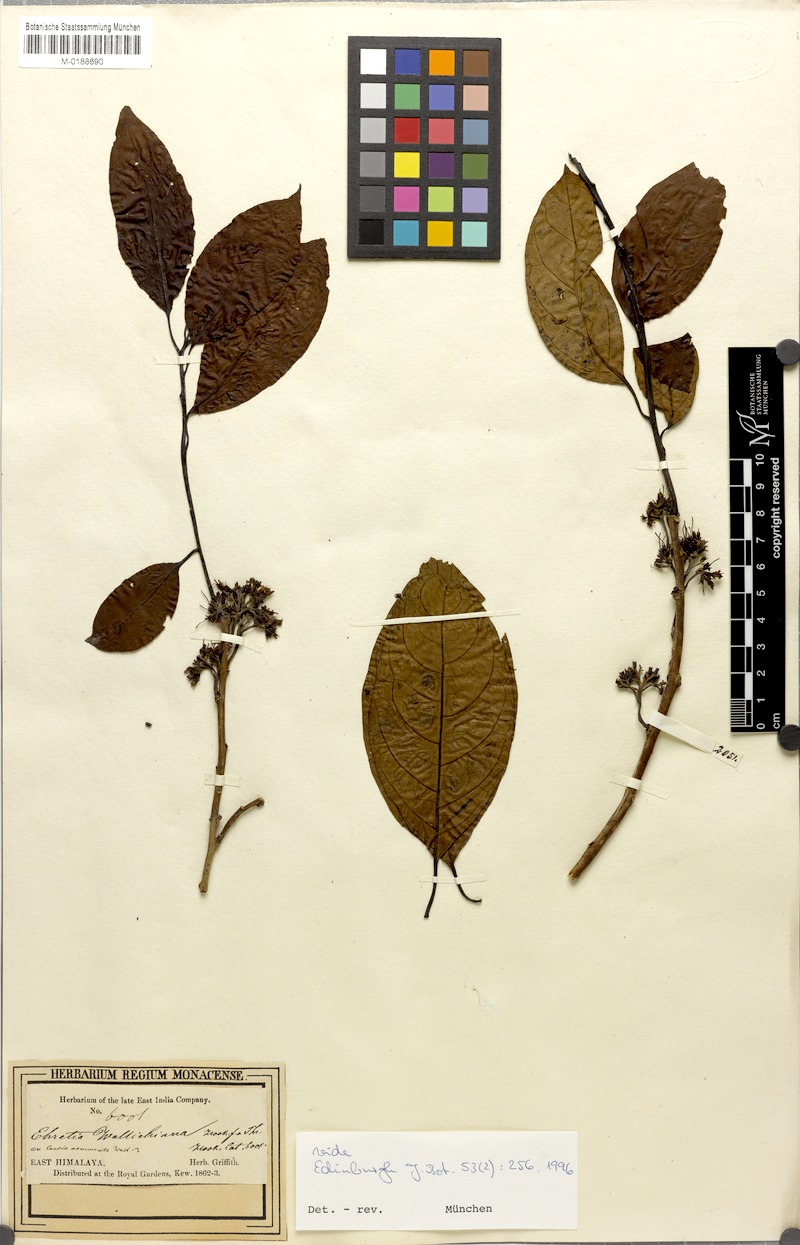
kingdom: Plantae
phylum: Tracheophyta
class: Magnoliopsida
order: Boraginales
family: Ehretiaceae
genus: Ehretia
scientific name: Ehretia wallichiana
